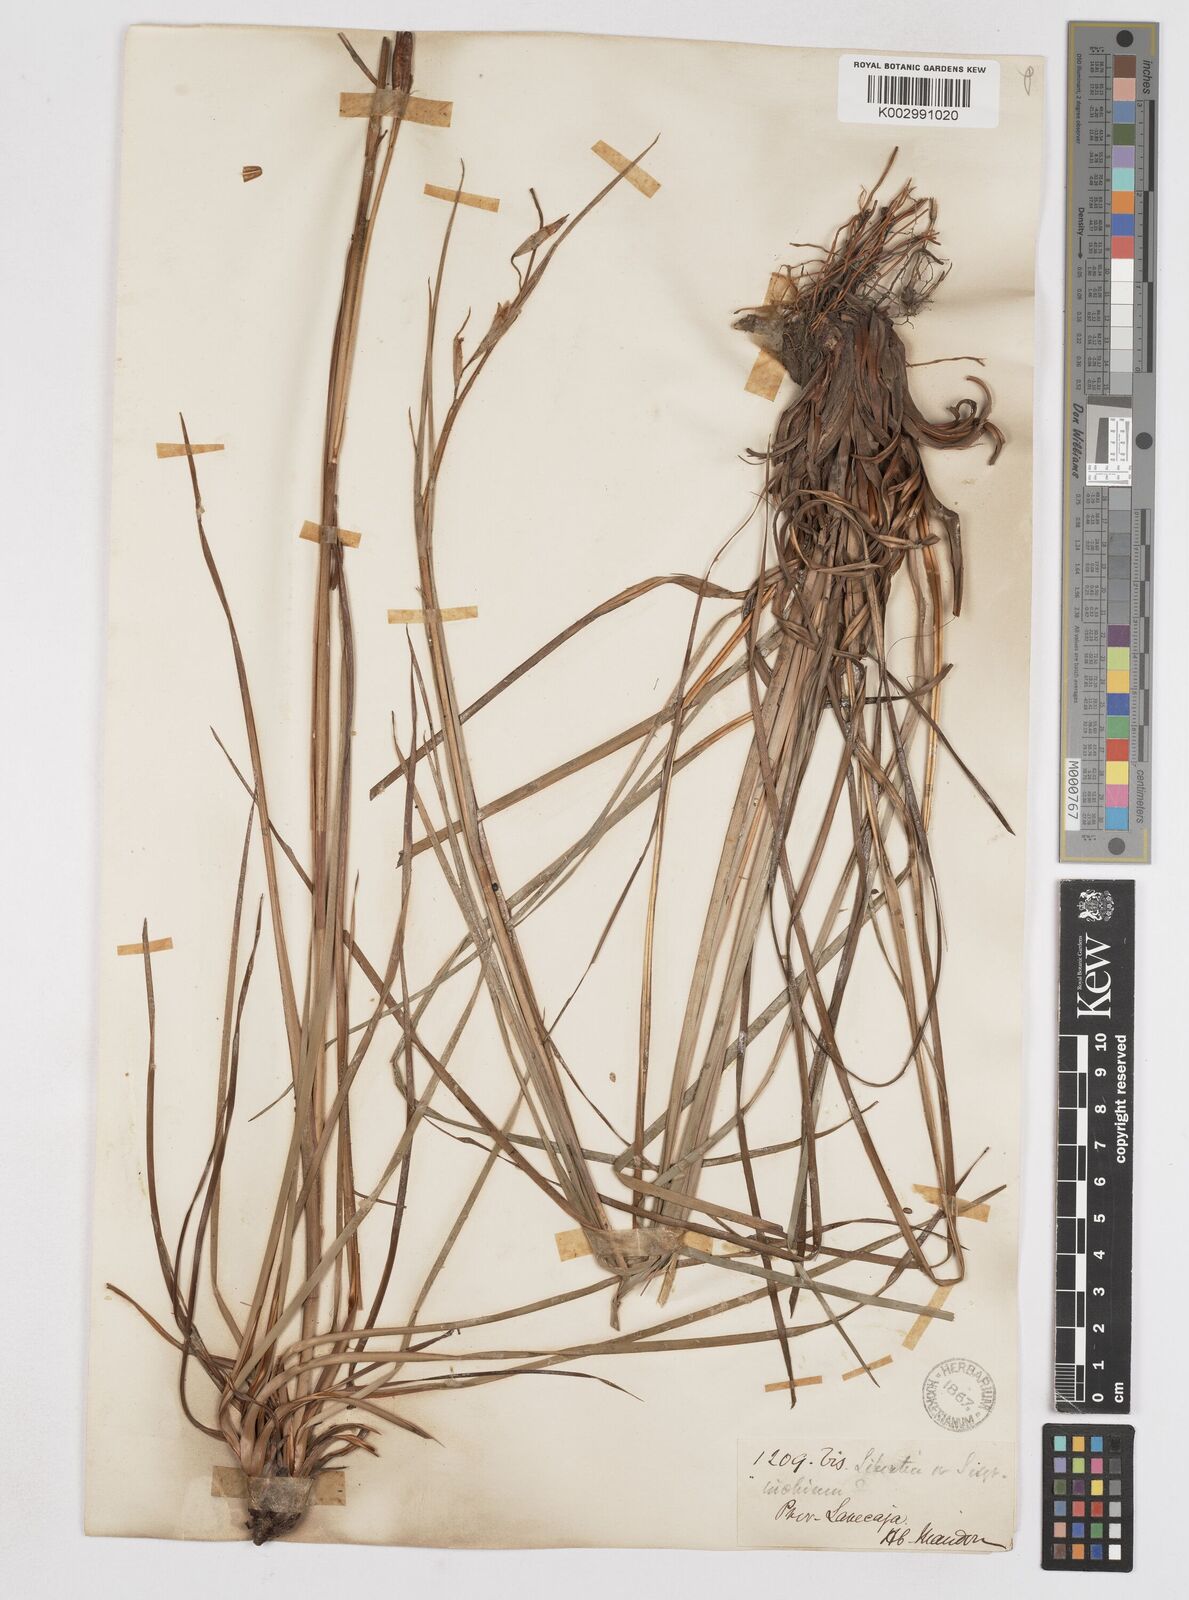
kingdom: Plantae
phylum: Tracheophyta
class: Liliopsida
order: Asparagales
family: Iridaceae
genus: Orthrosanthus
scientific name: Orthrosanthus occissapungus
